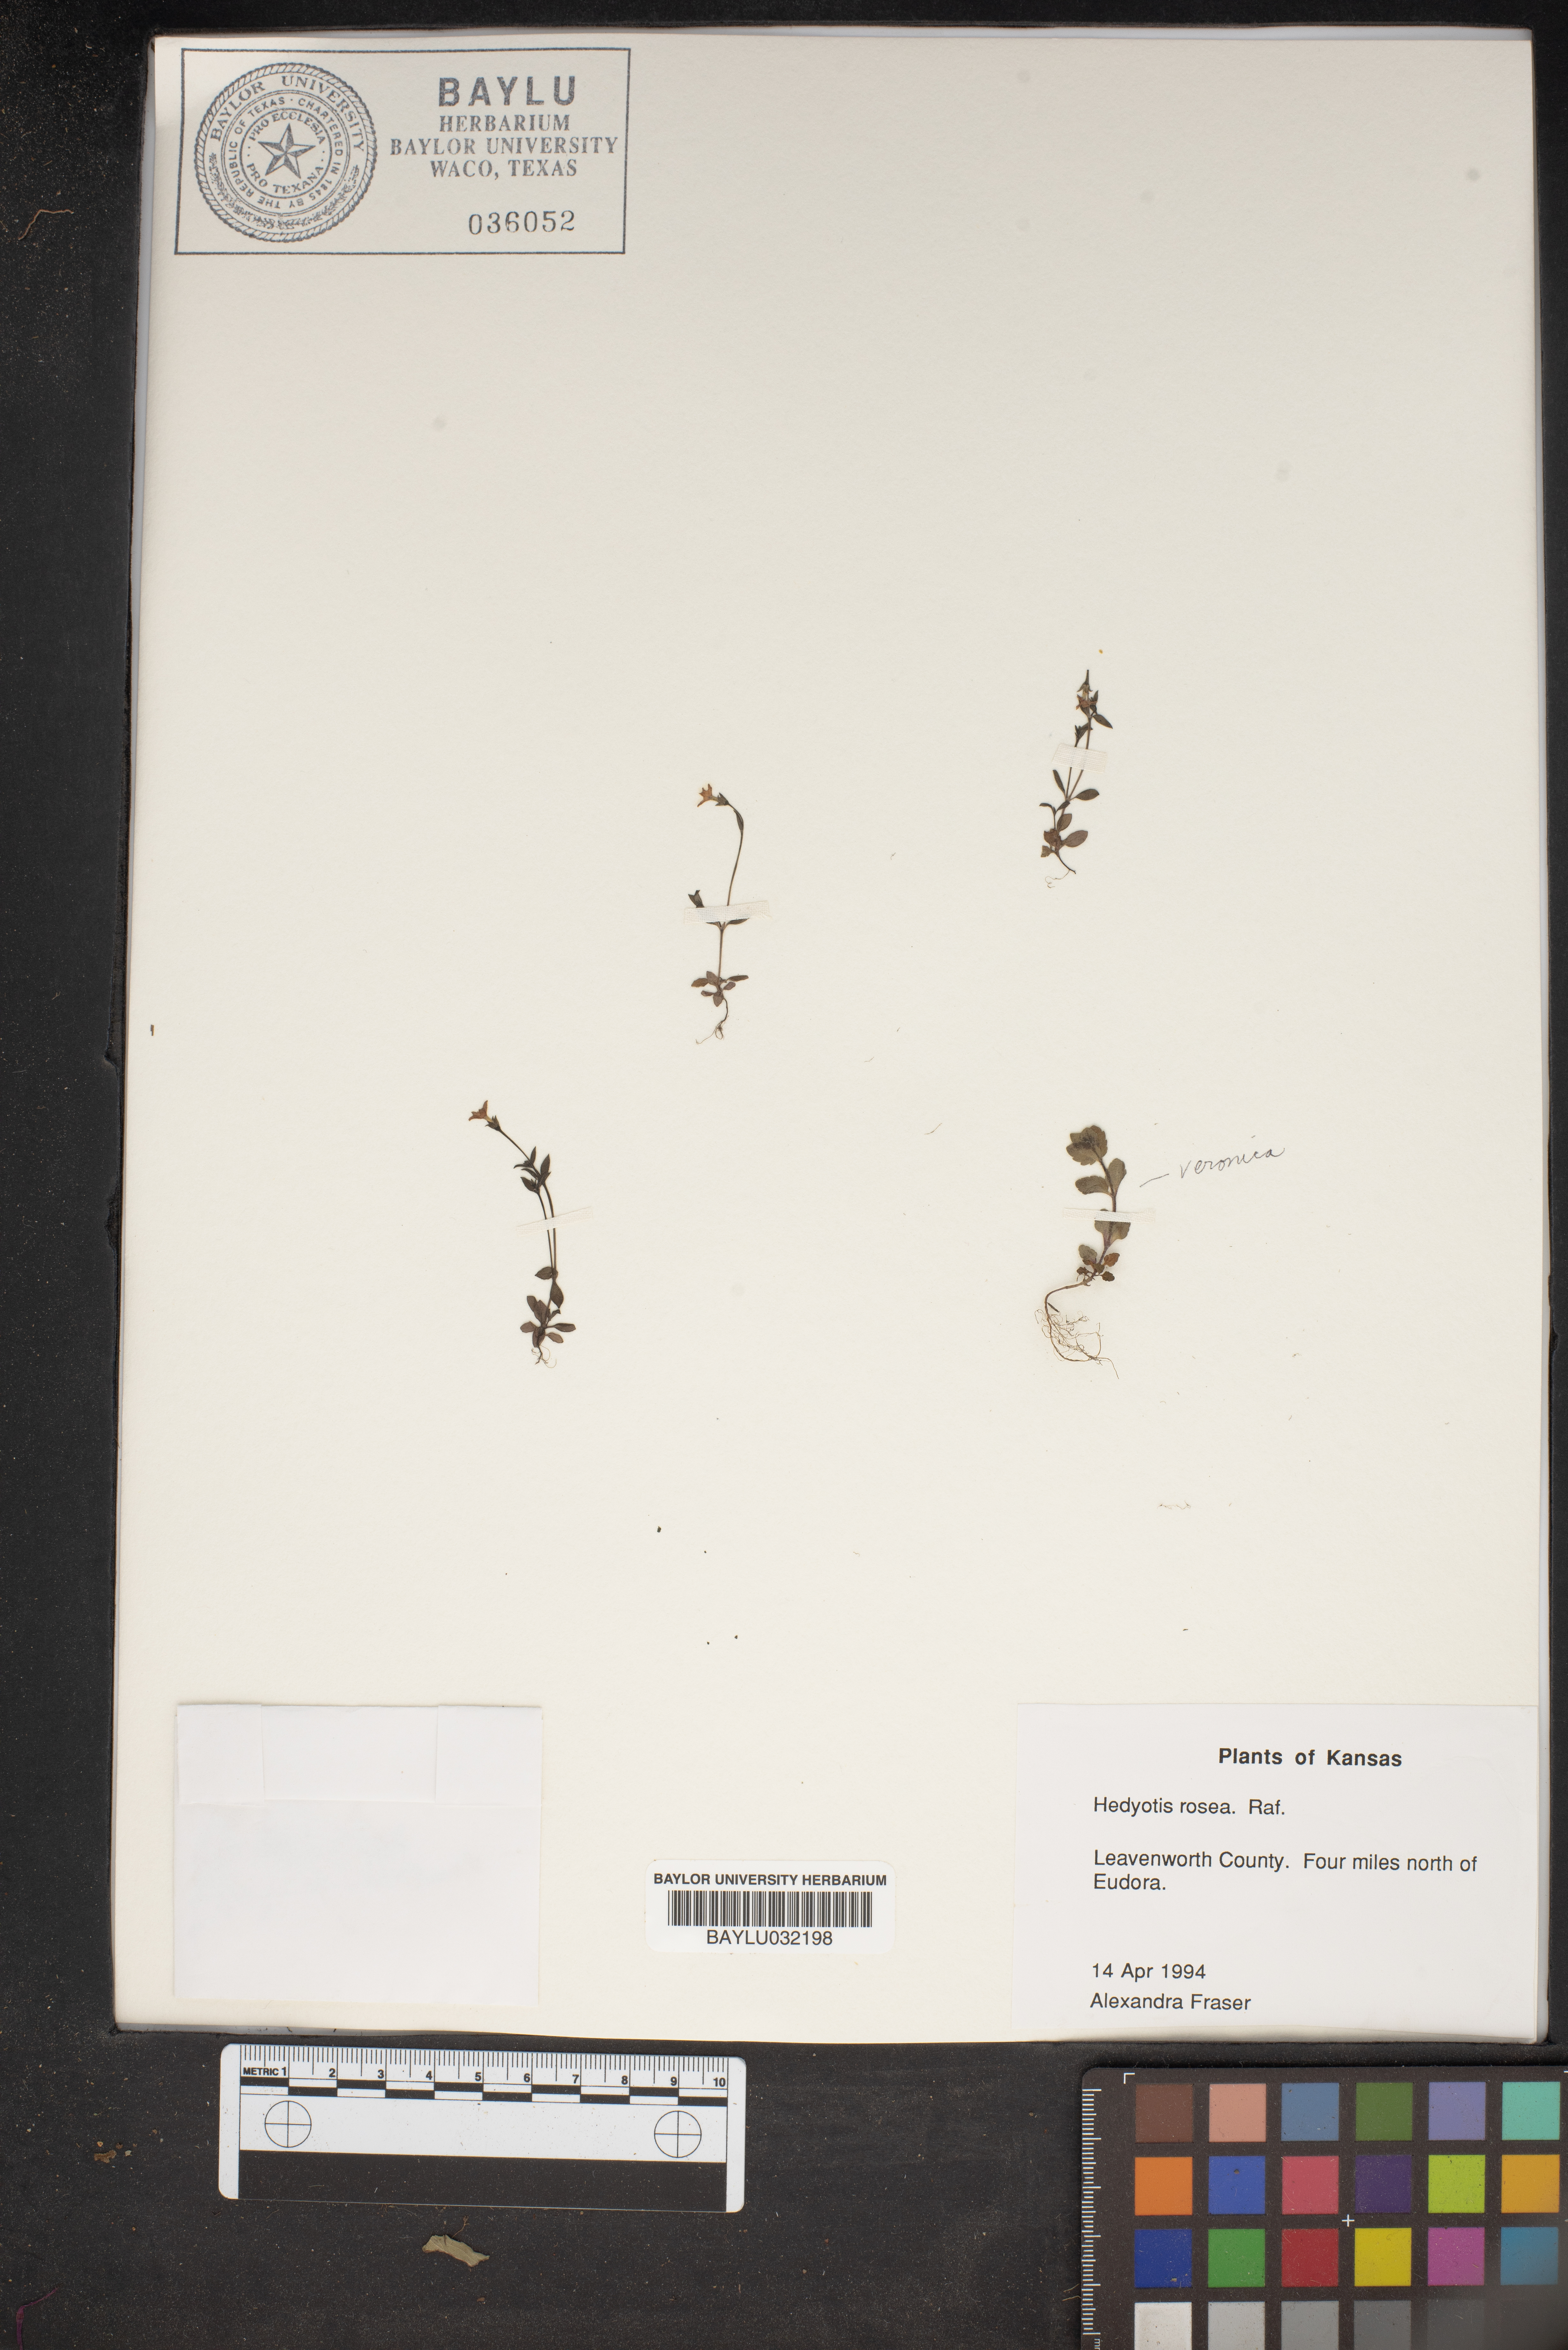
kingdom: Plantae
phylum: Tracheophyta
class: Magnoliopsida
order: Gentianales
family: Rubiaceae
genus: Houstonia
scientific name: Houstonia rosea
